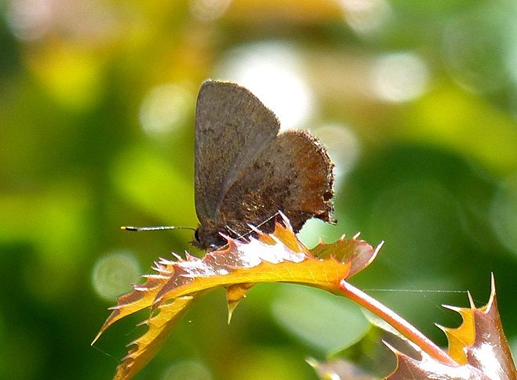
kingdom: Animalia
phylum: Arthropoda
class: Insecta
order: Lepidoptera
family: Lycaenidae
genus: Mitoura
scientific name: Mitoura gryneus
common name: Juniper Hairstreak
